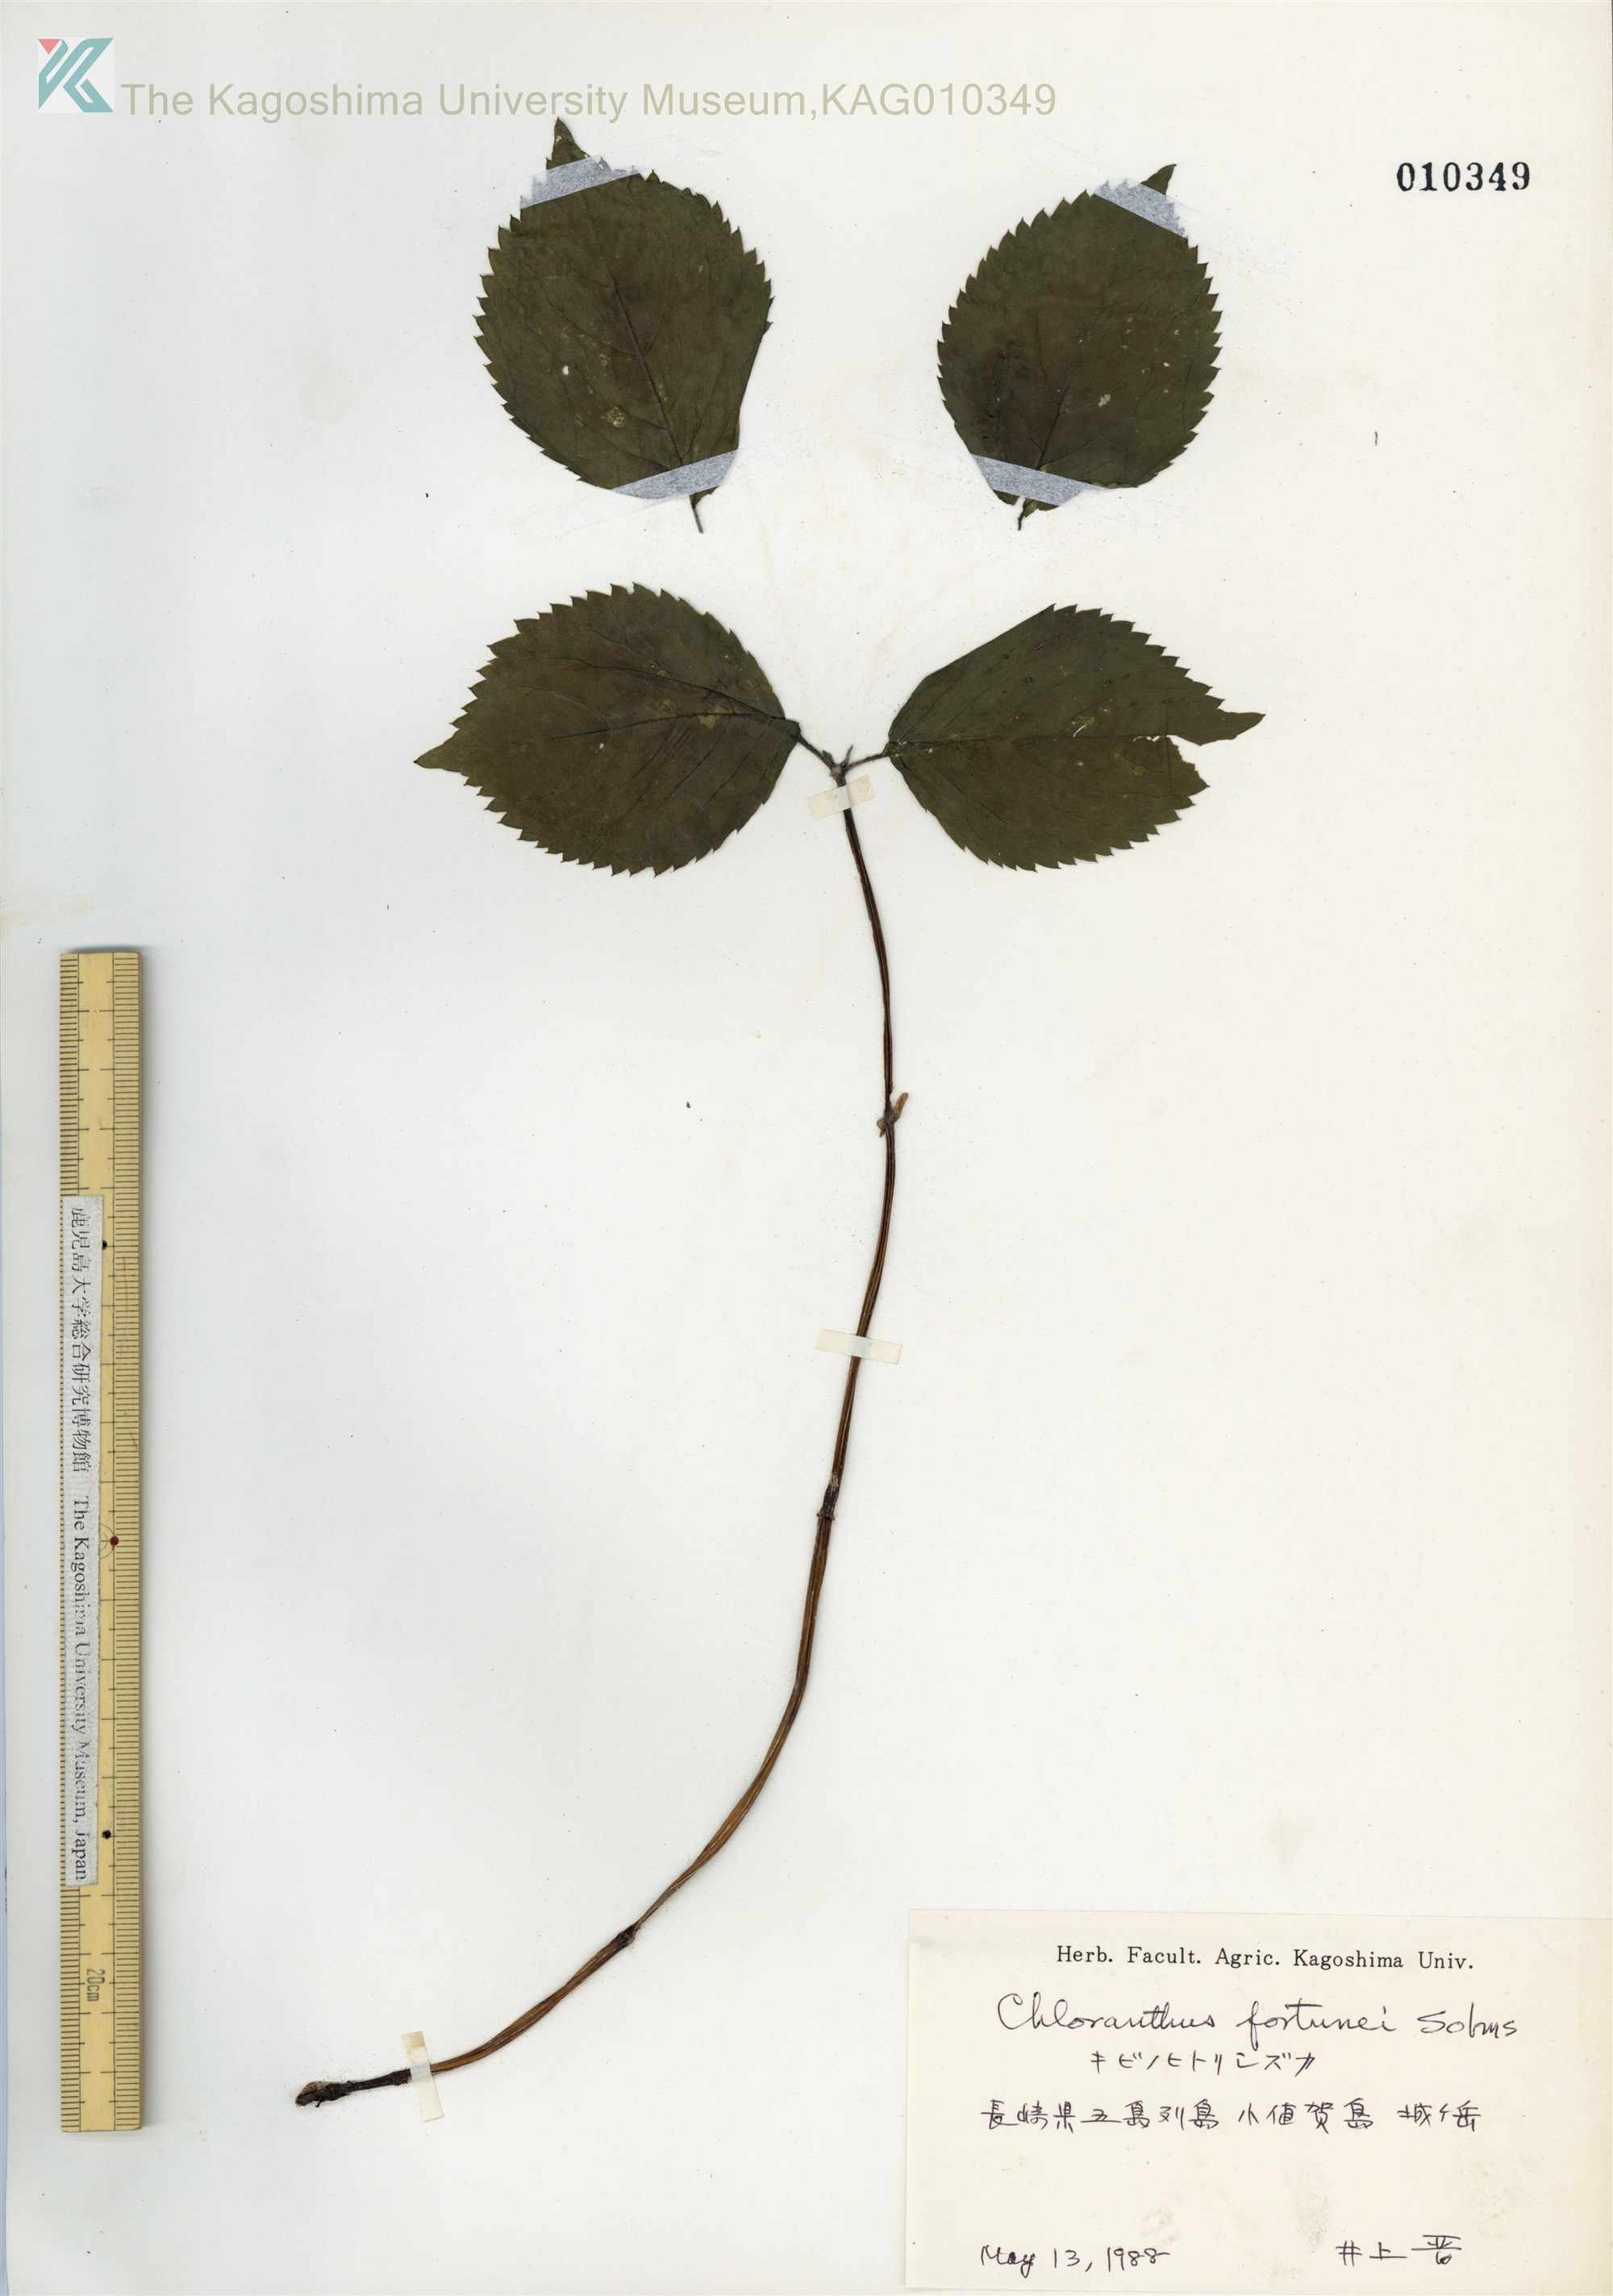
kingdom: Plantae
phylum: Tracheophyta
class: Magnoliopsida
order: Chloranthales
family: Chloranthaceae
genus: Chloranthus
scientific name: Chloranthus fortunei
